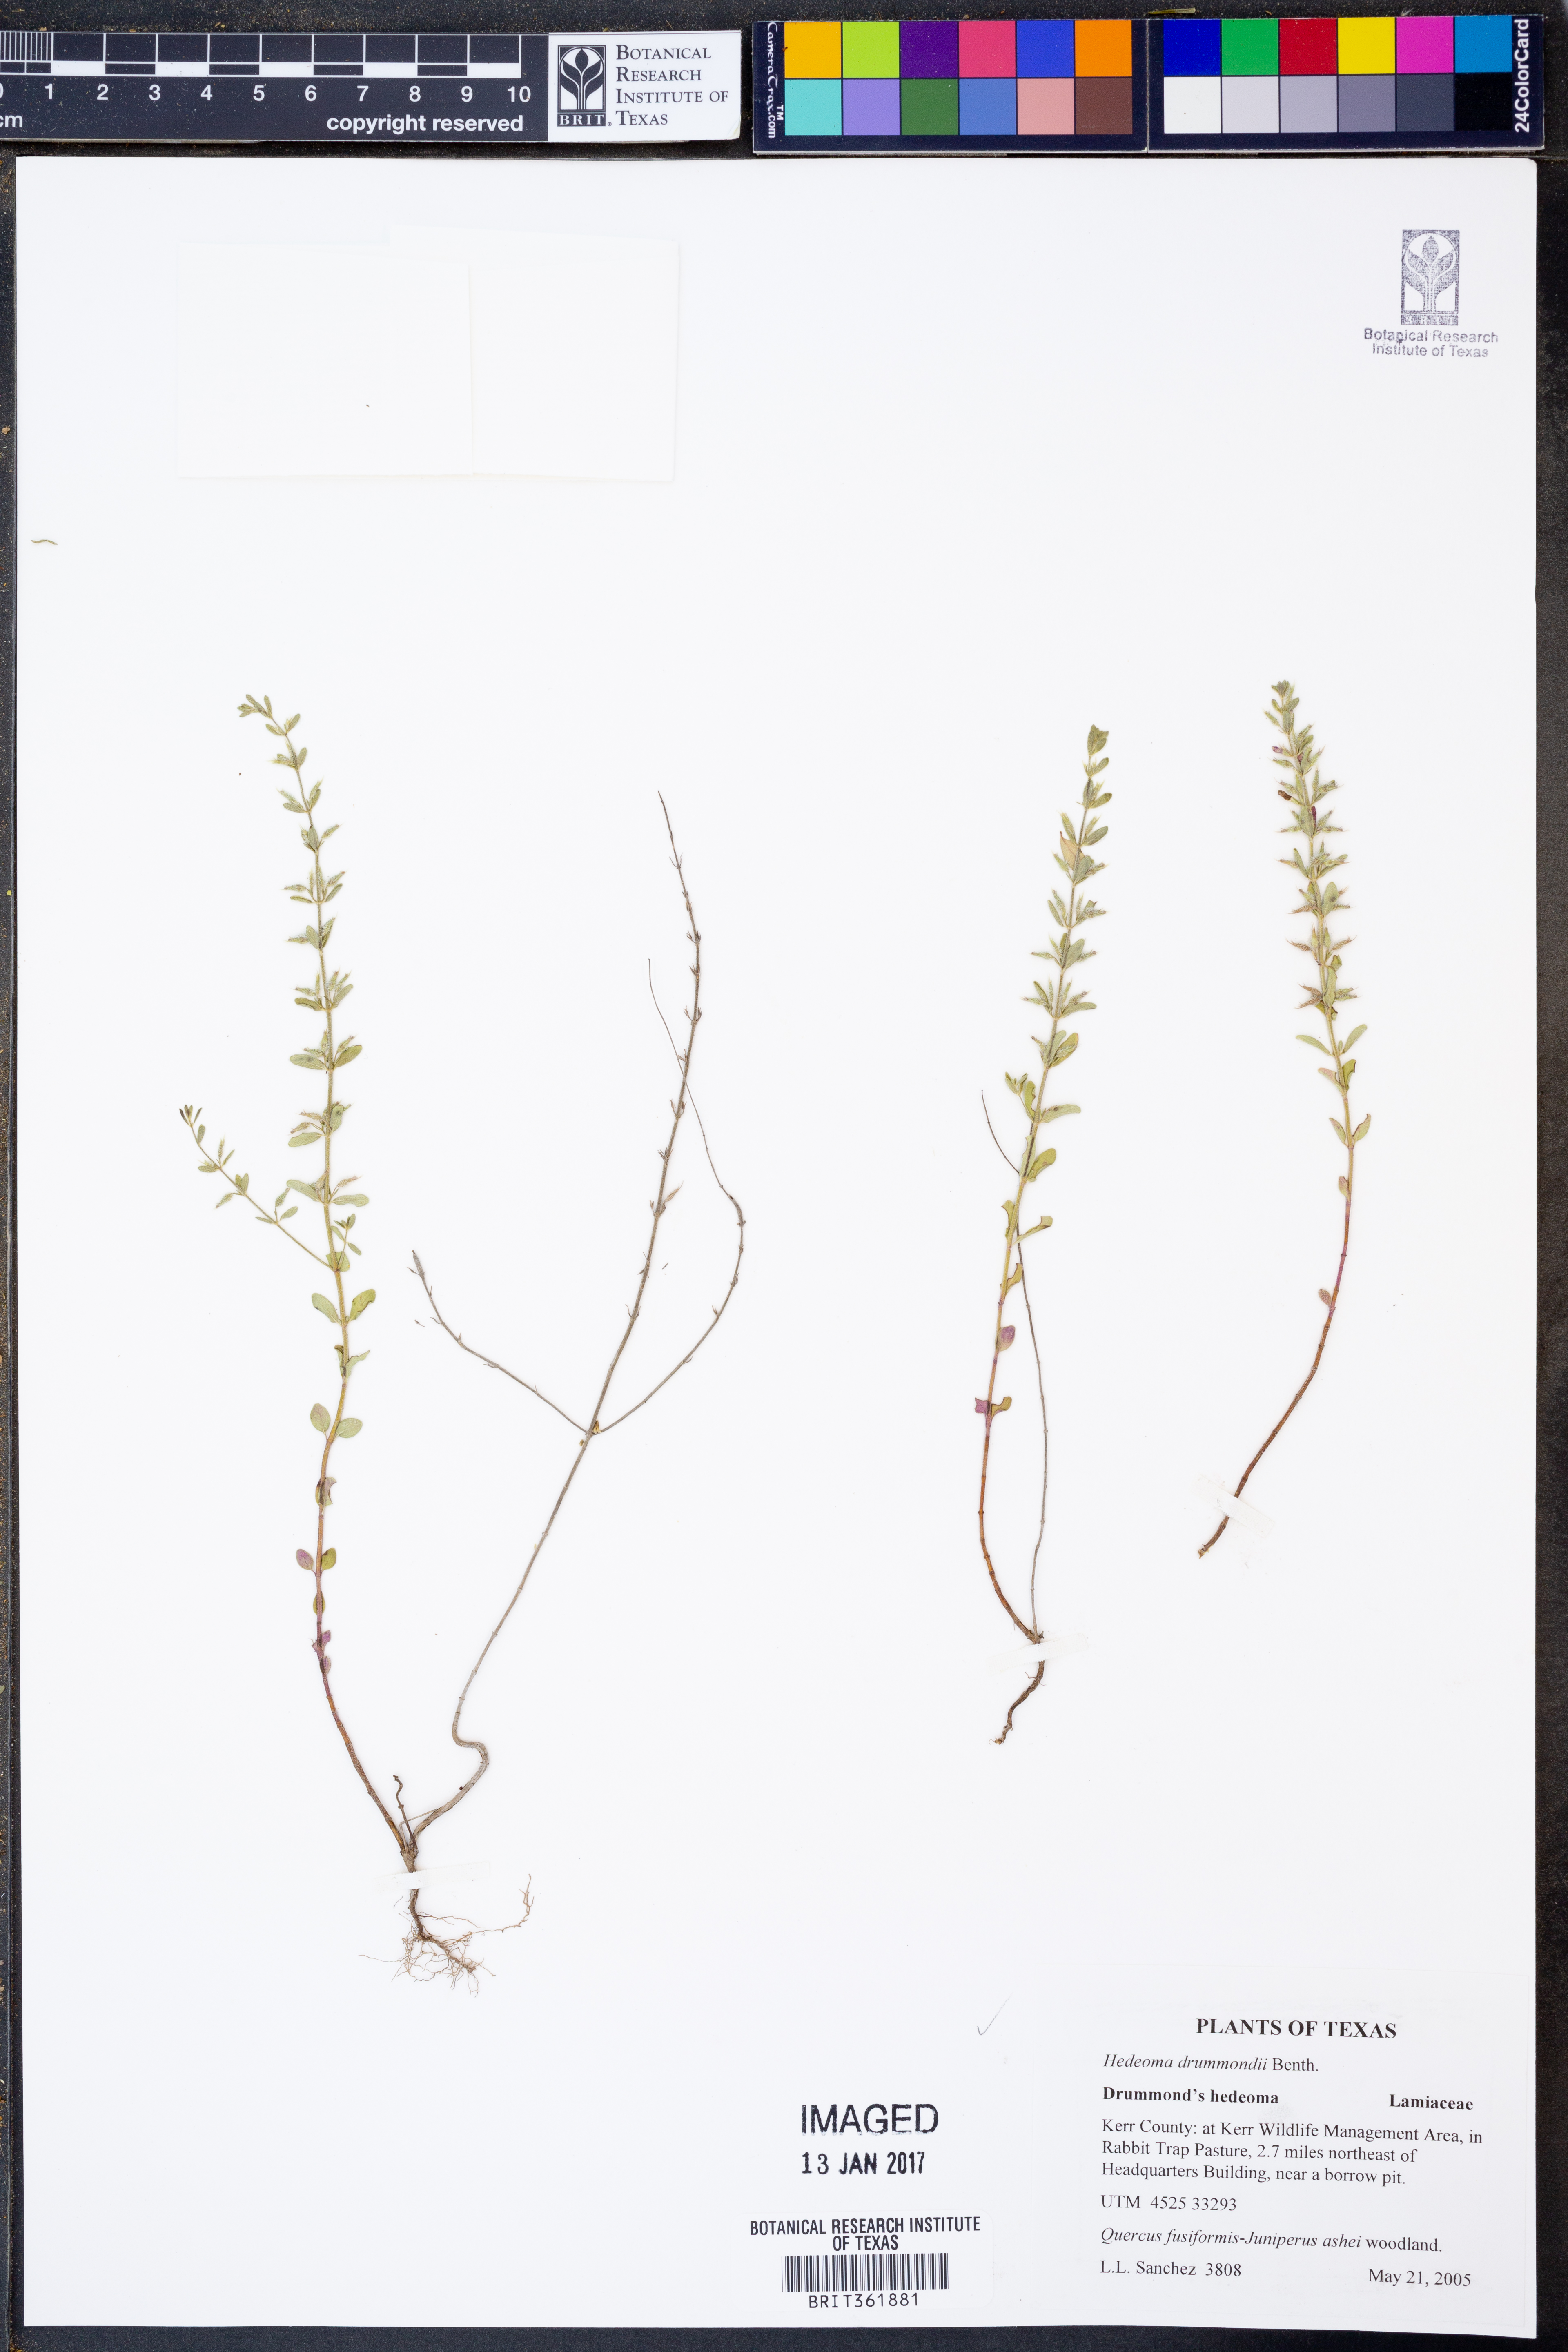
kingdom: Plantae
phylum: Tracheophyta
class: Magnoliopsida
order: Lamiales
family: Lamiaceae
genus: Hedeoma
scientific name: Hedeoma drummondii
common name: New mexico pennyroyal
